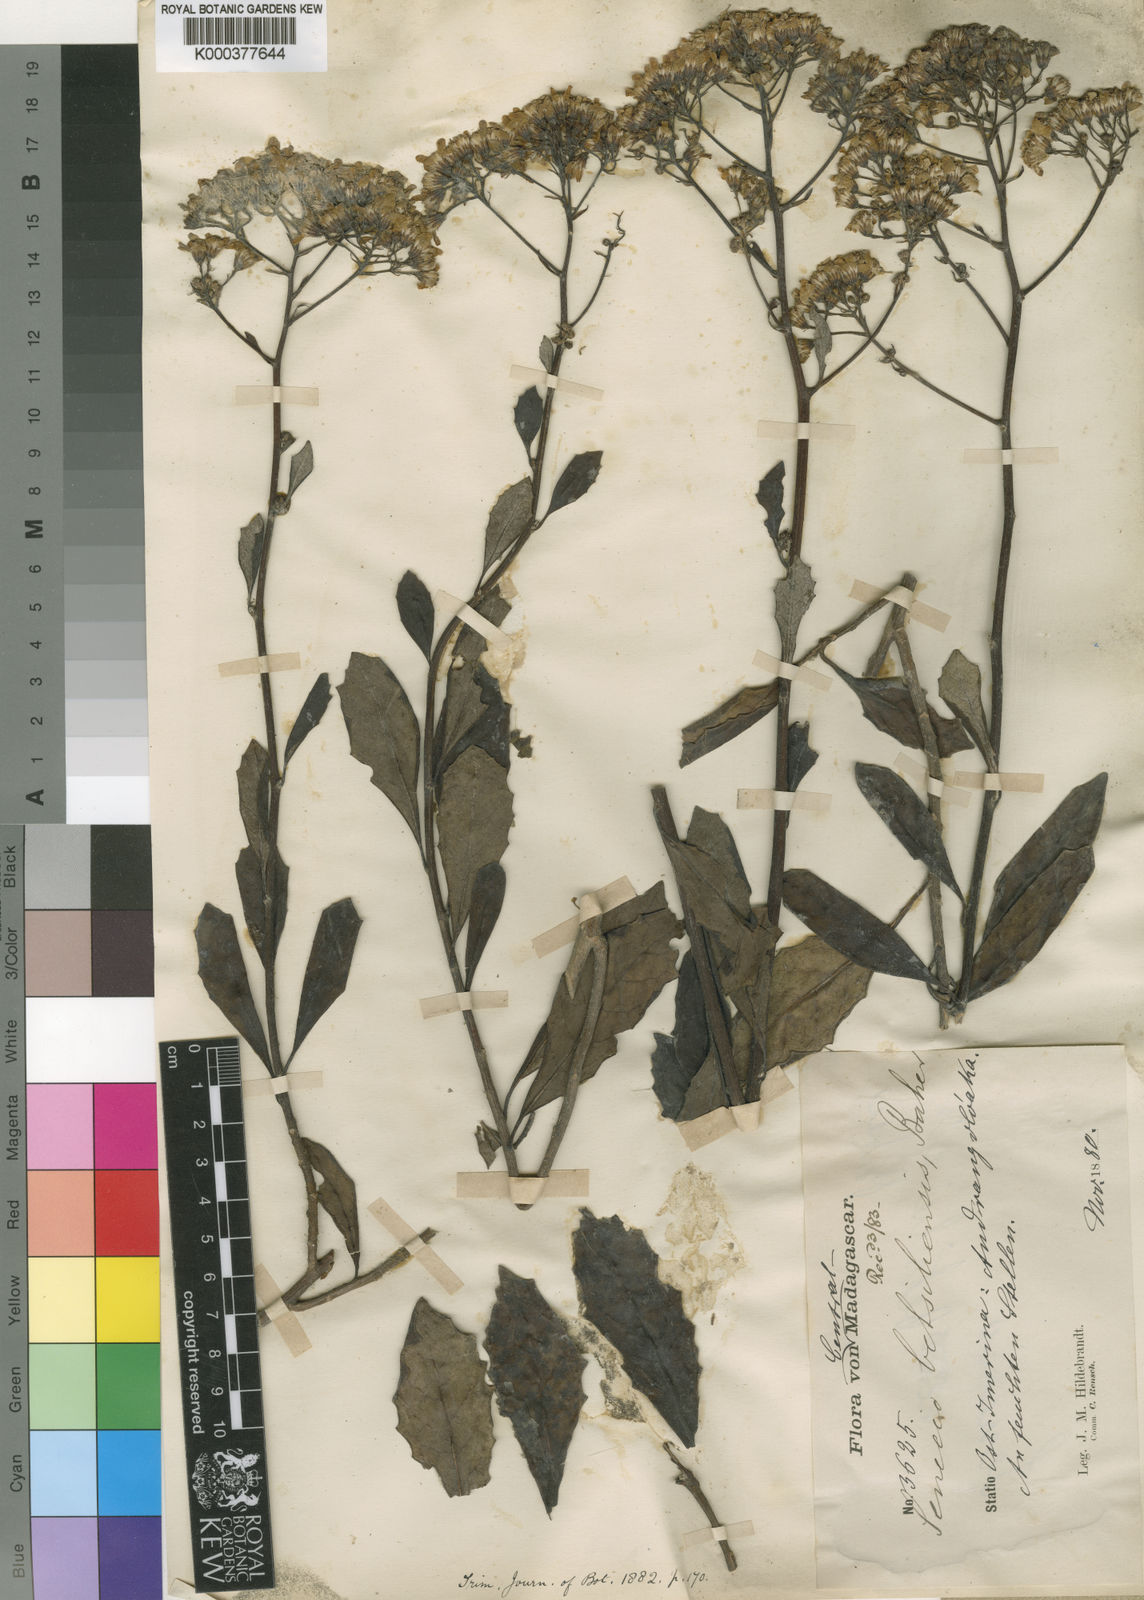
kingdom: Plantae
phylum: Tracheophyta
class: Magnoliopsida
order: Asterales
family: Asteraceae
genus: Hubertia
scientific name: Hubertia hypargyrea
